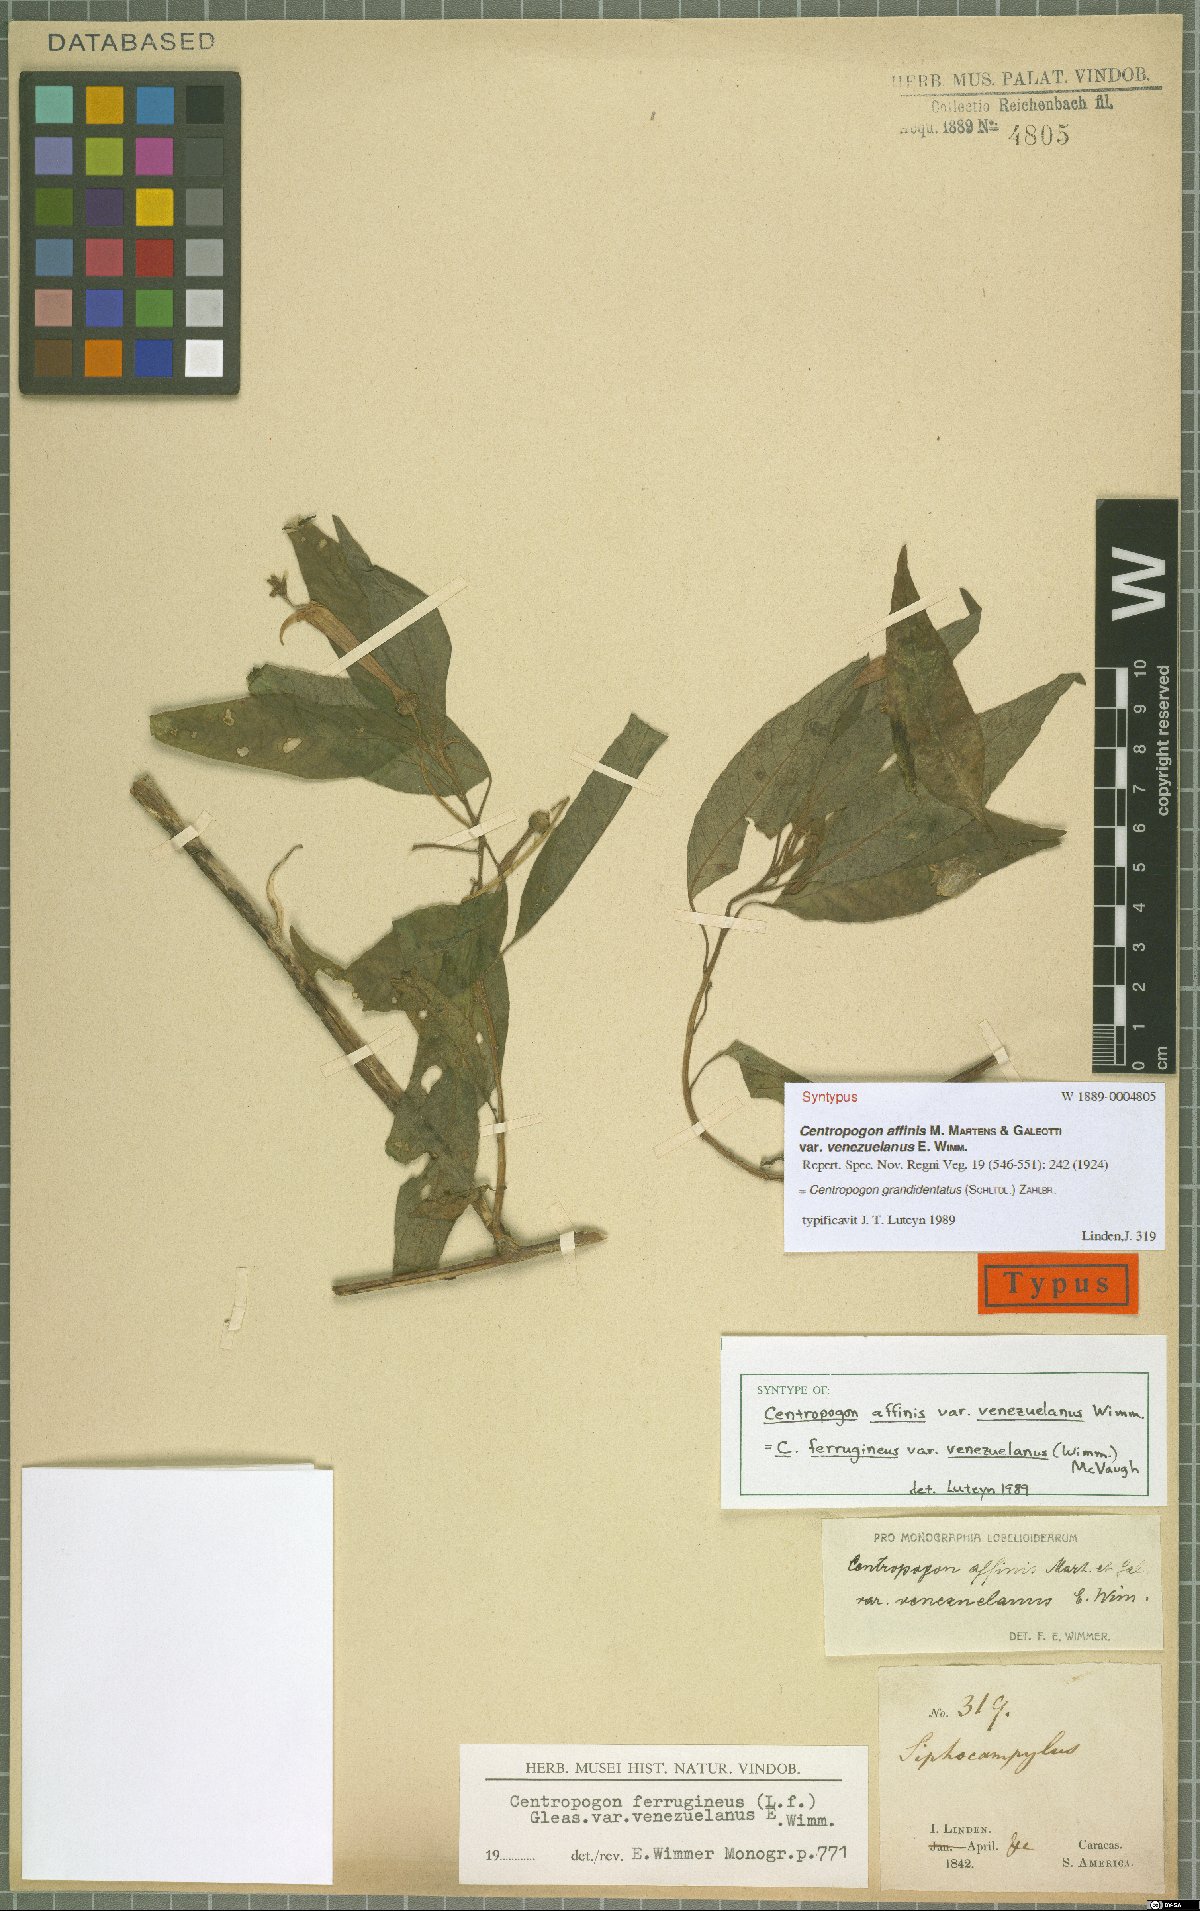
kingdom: Plantae
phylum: Tracheophyta
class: Magnoliopsida
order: Asterales
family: Campanulaceae
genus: Centropogon
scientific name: Centropogon grandidentatus
